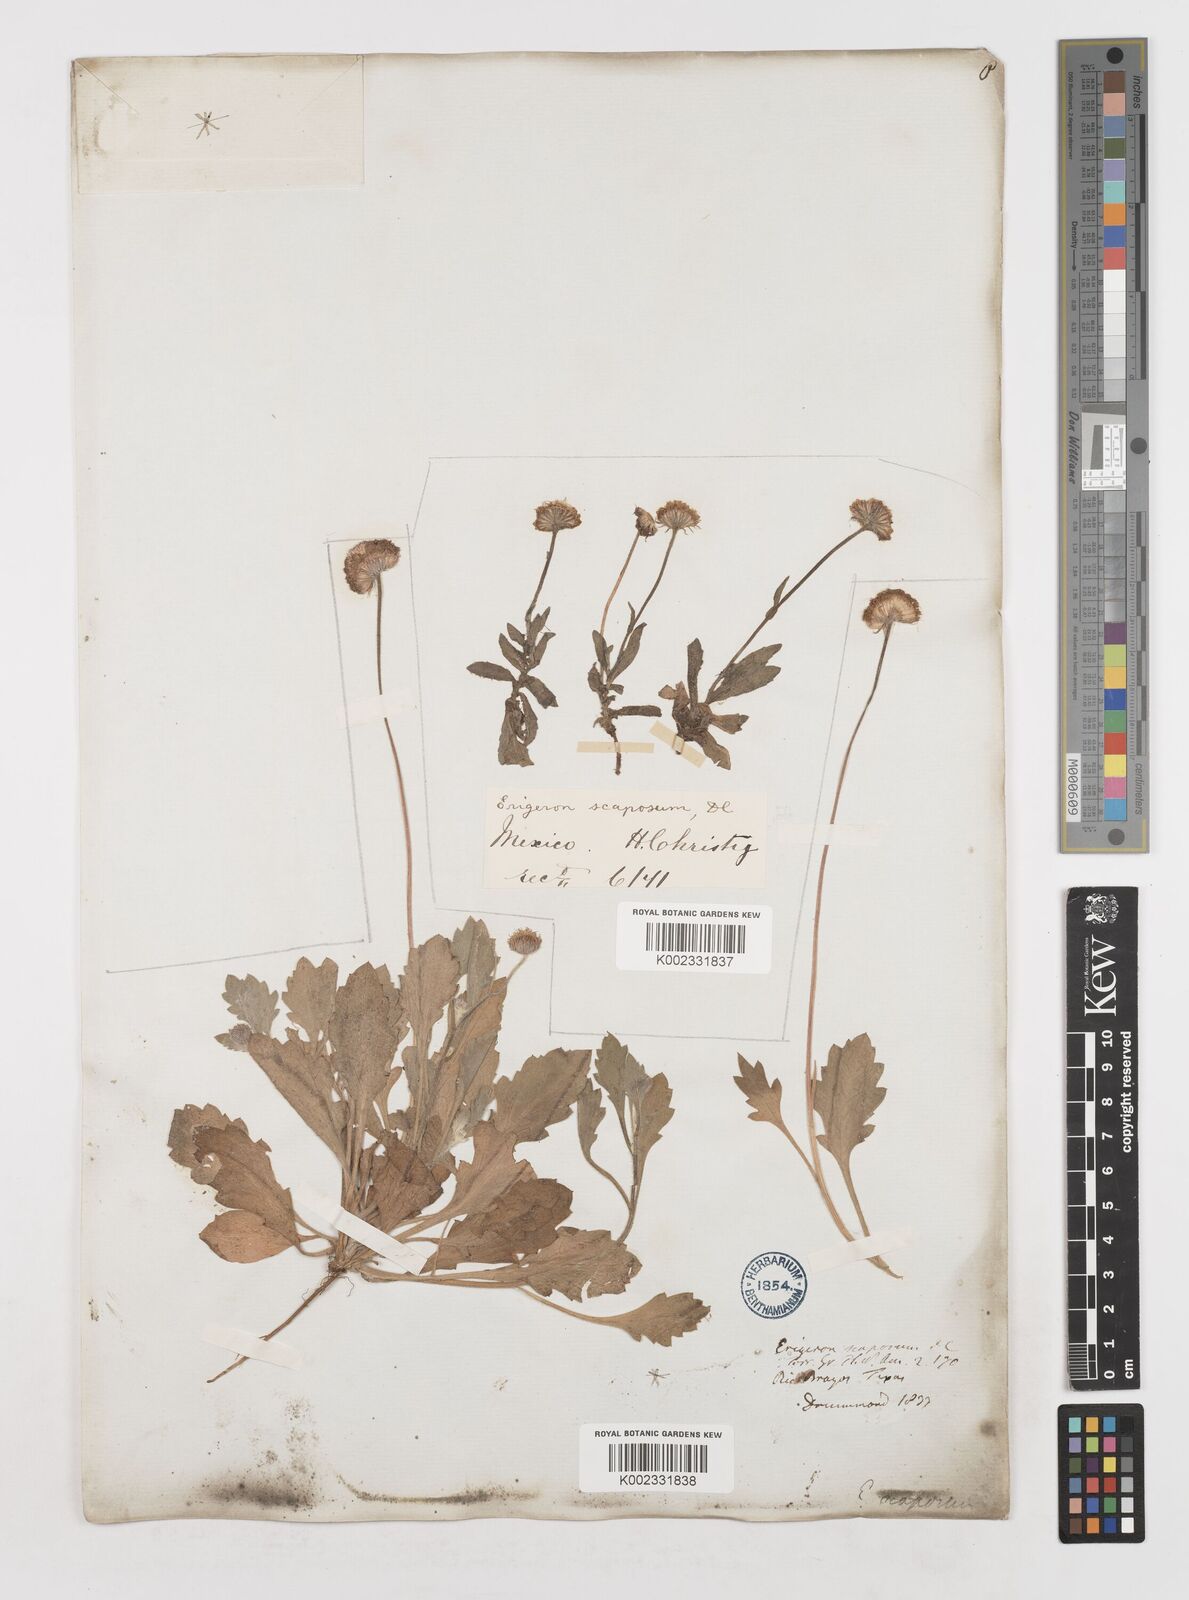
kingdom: Plantae
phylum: Tracheophyta
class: Magnoliopsida
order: Asterales
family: Asteraceae
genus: Erigeron
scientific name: Erigeron longipes
